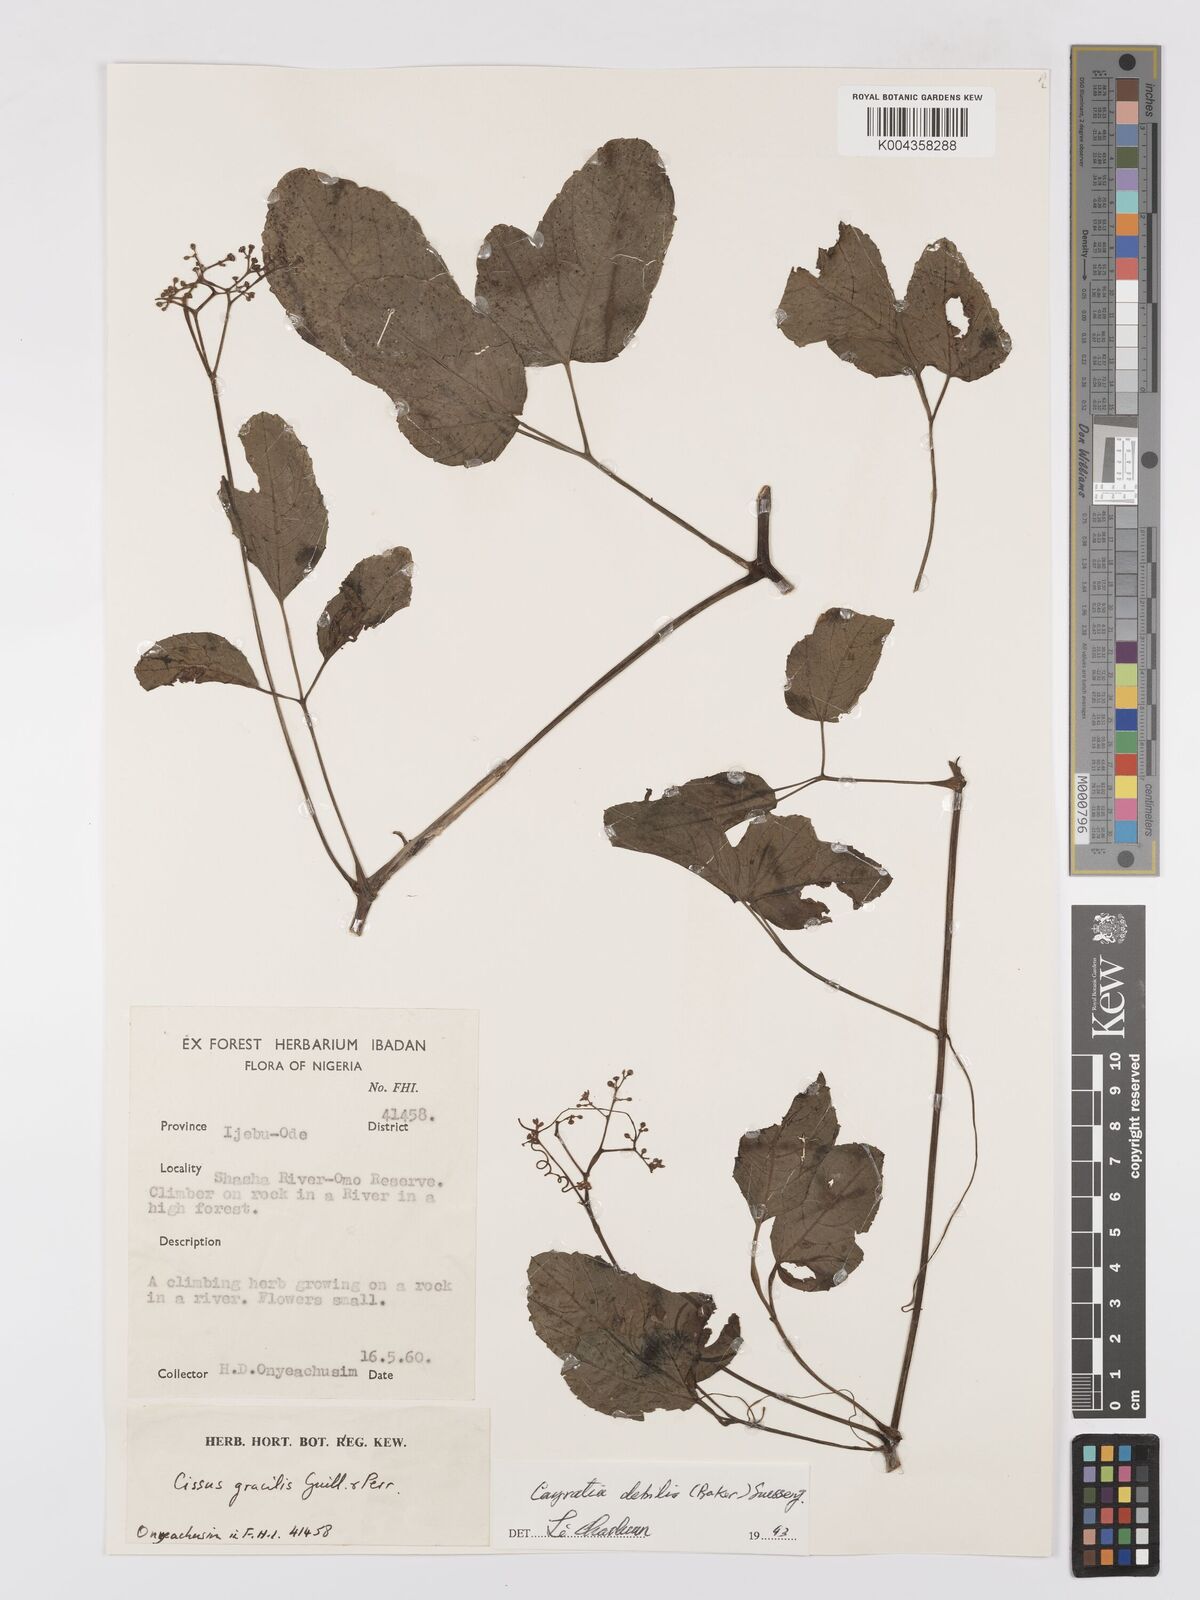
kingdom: Plantae
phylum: Tracheophyta
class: Magnoliopsida
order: Vitales
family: Vitaceae
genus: Afrocayratia
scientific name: Afrocayratia debilis
